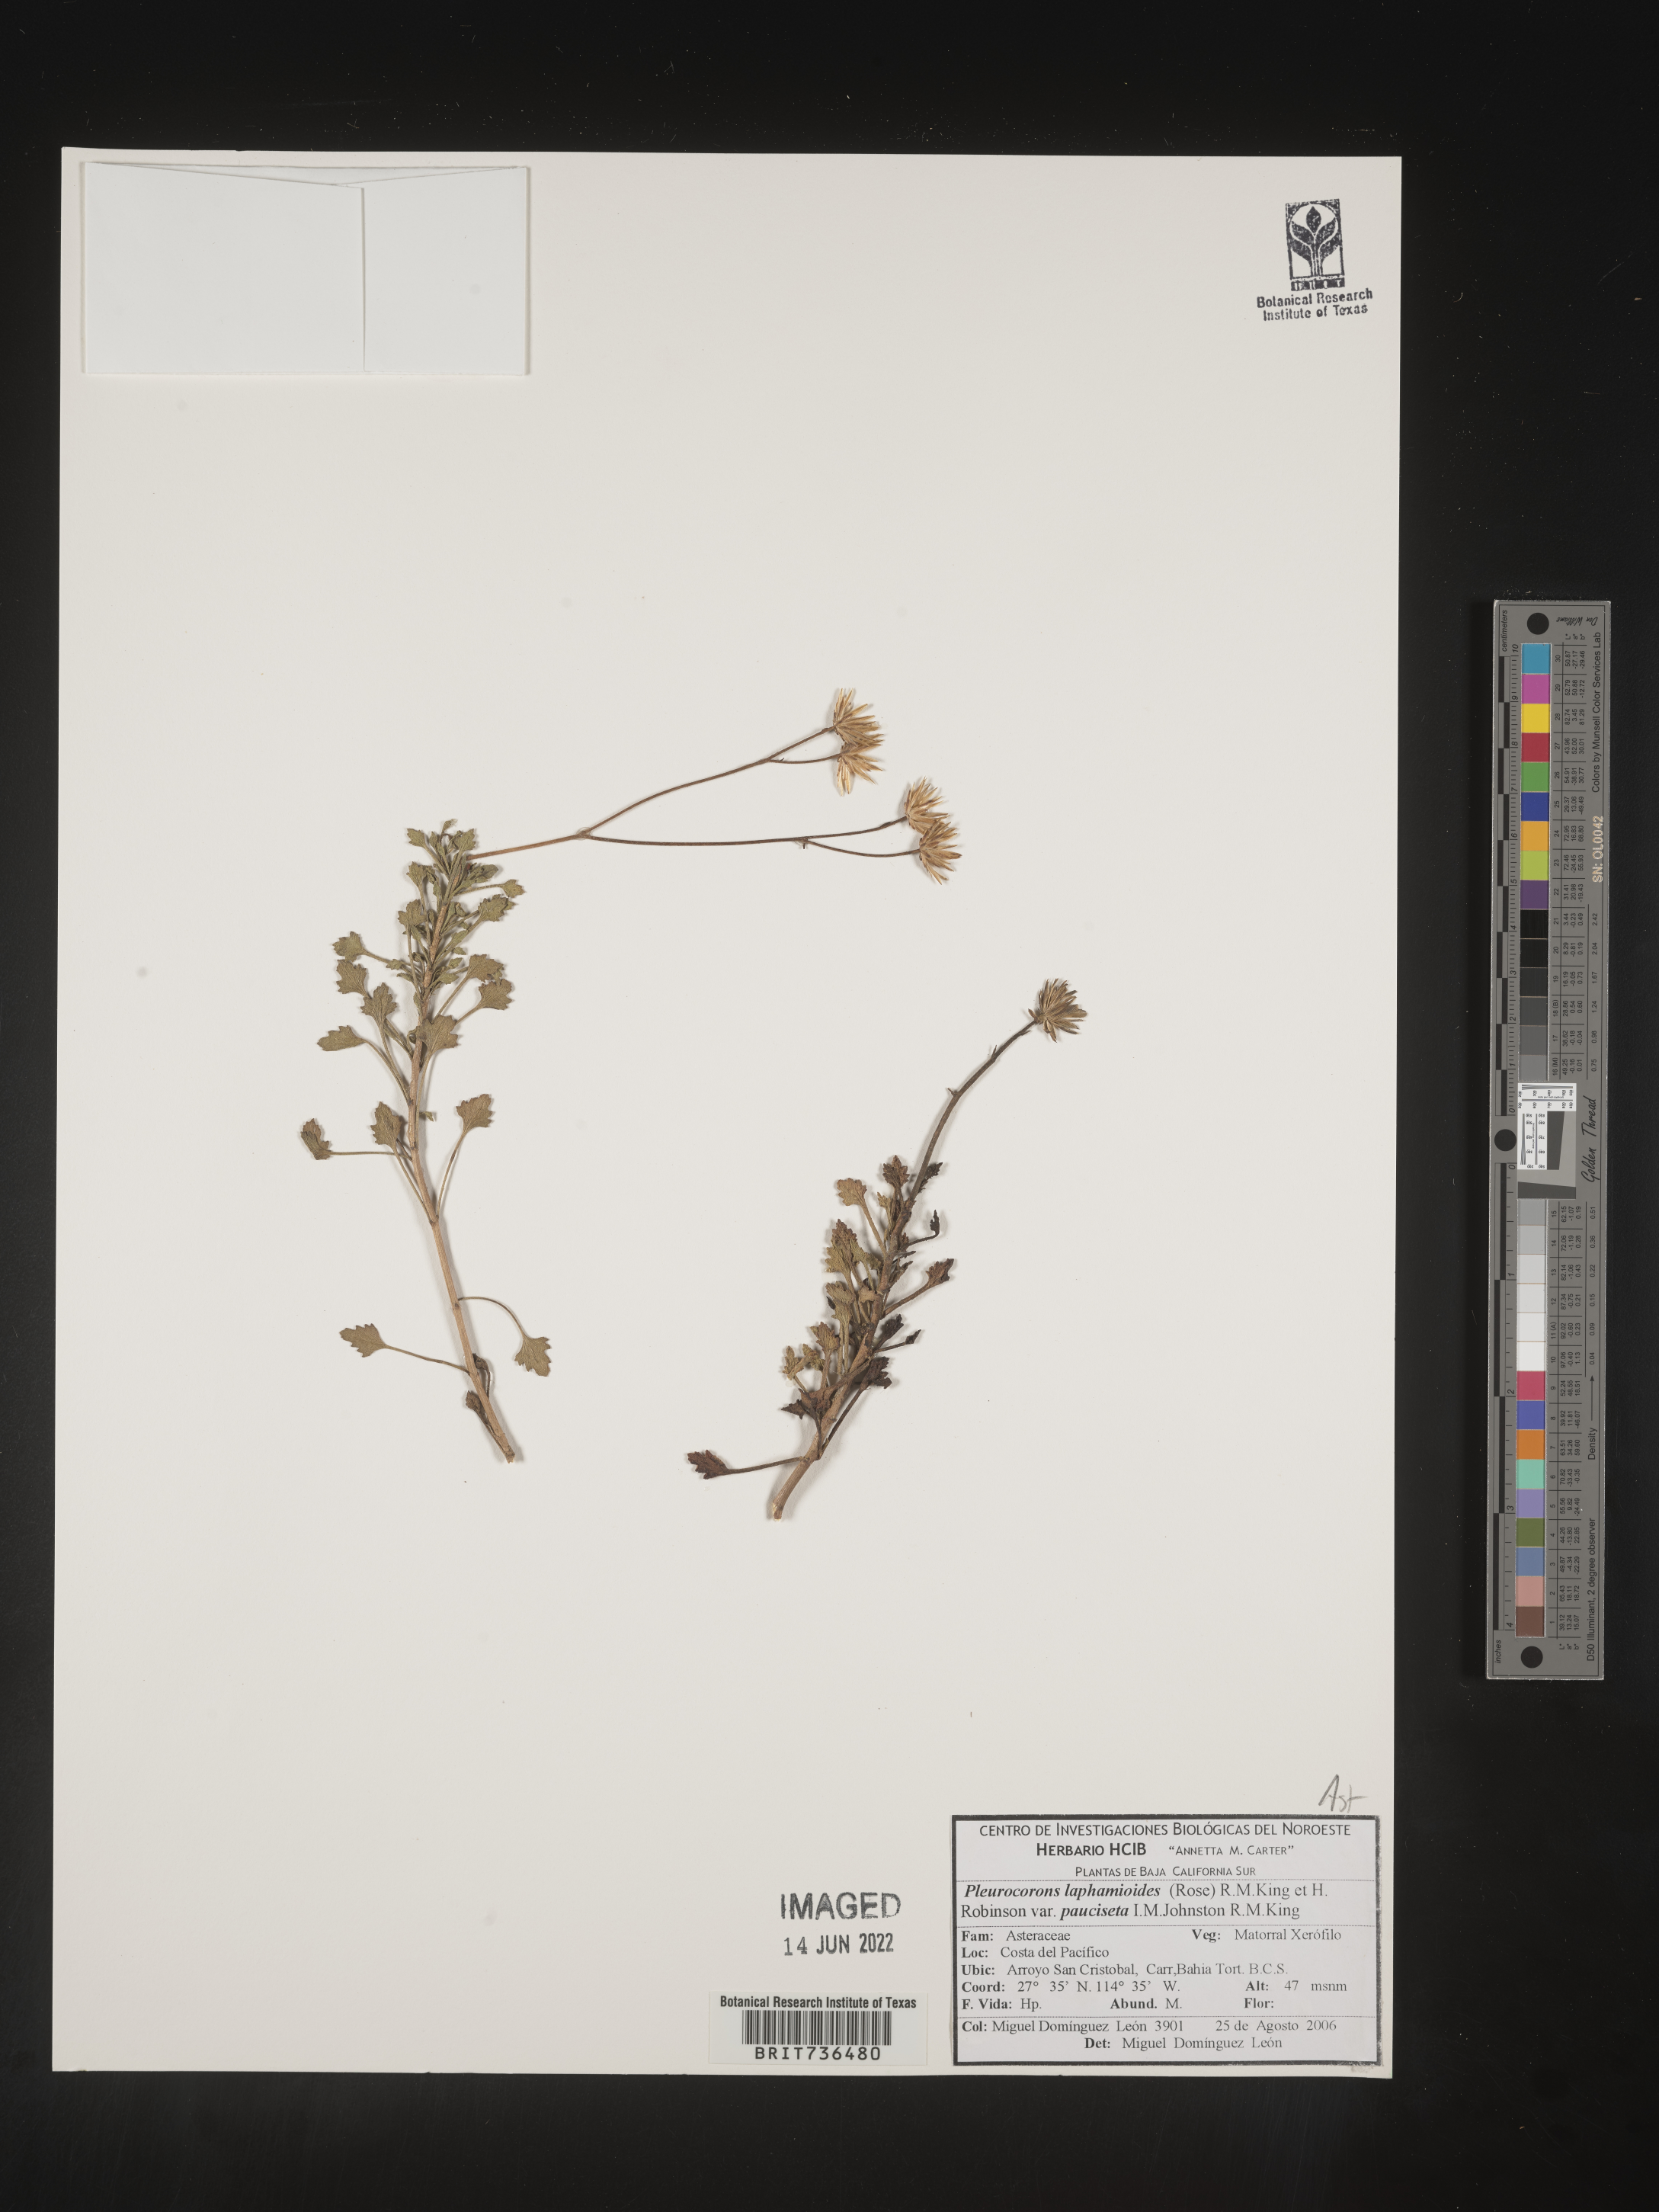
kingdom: Plantae
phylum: Tracheophyta
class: Magnoliopsida
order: Asterales
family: Asteraceae
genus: Pleurocoronis
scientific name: Pleurocoronis
